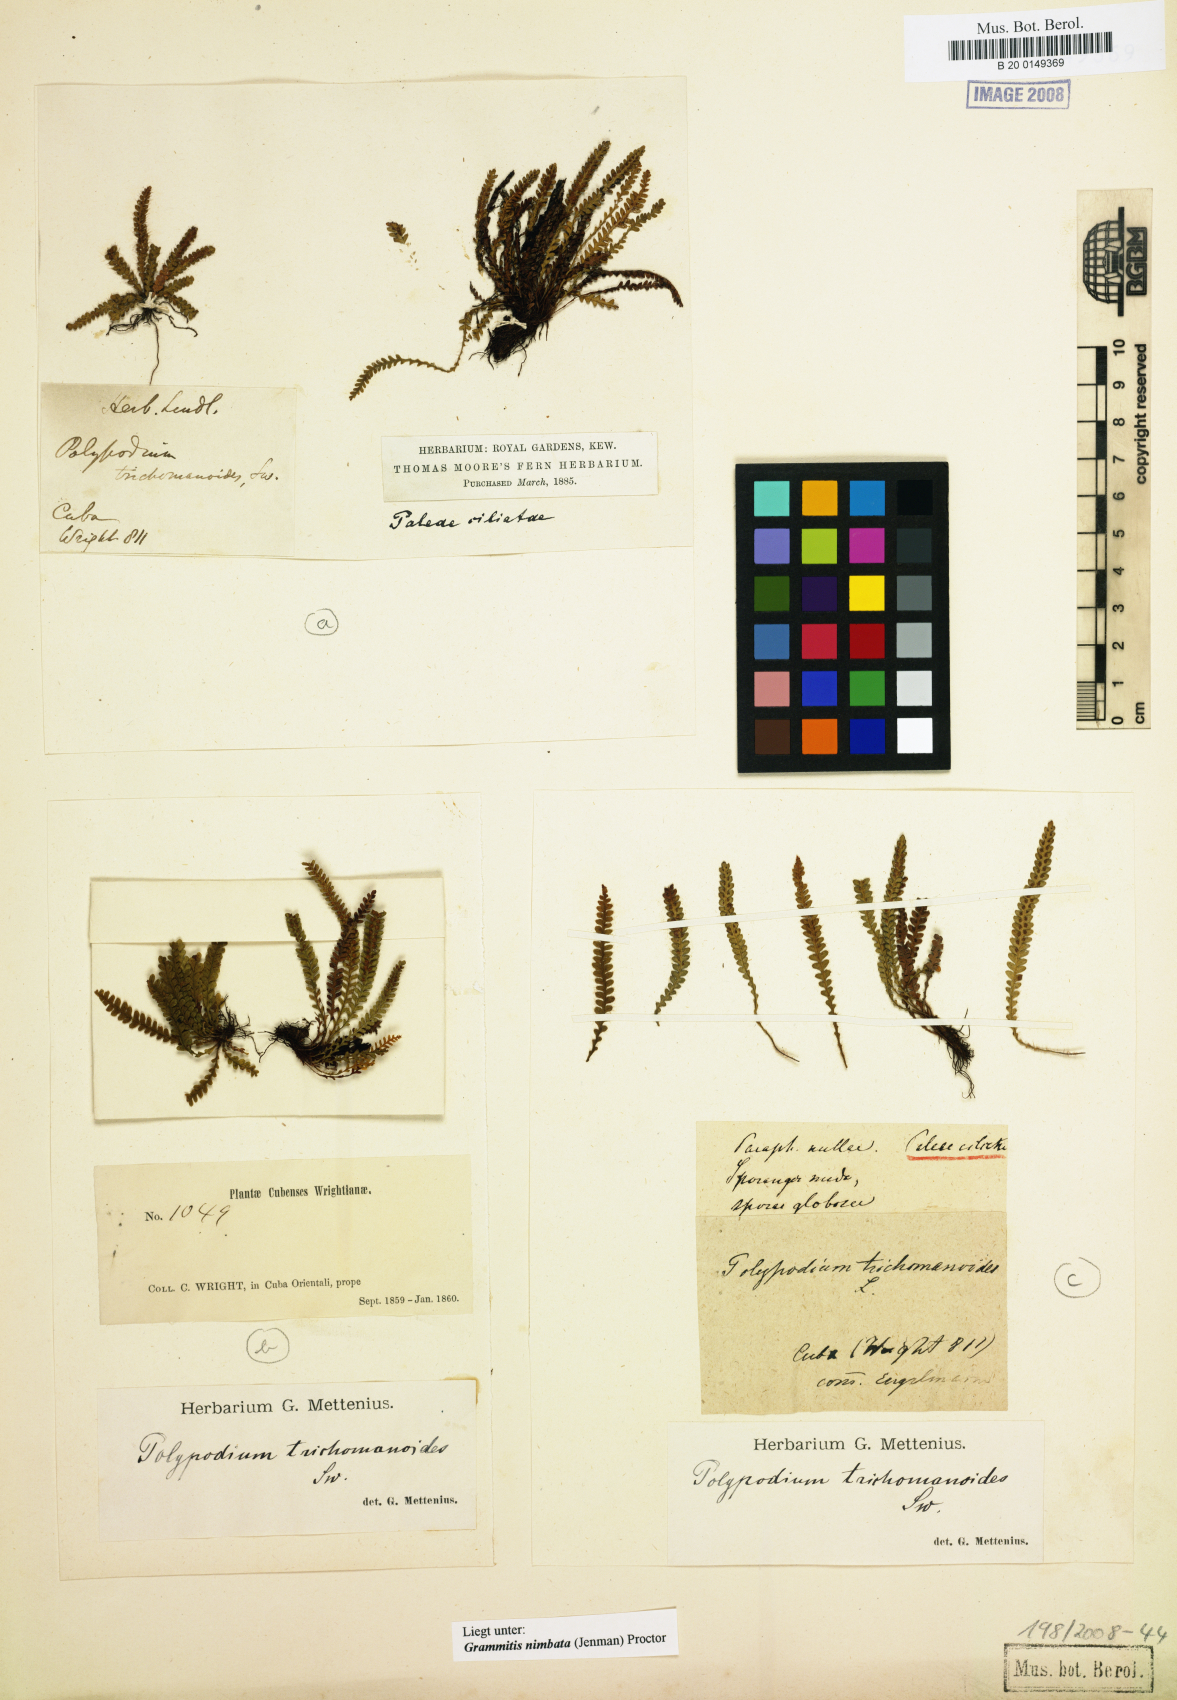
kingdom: Plantae
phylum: Tracheophyta
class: Polypodiopsida
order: Polypodiales
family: Polypodiaceae
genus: Moranopteris
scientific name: Moranopteris nimbata
